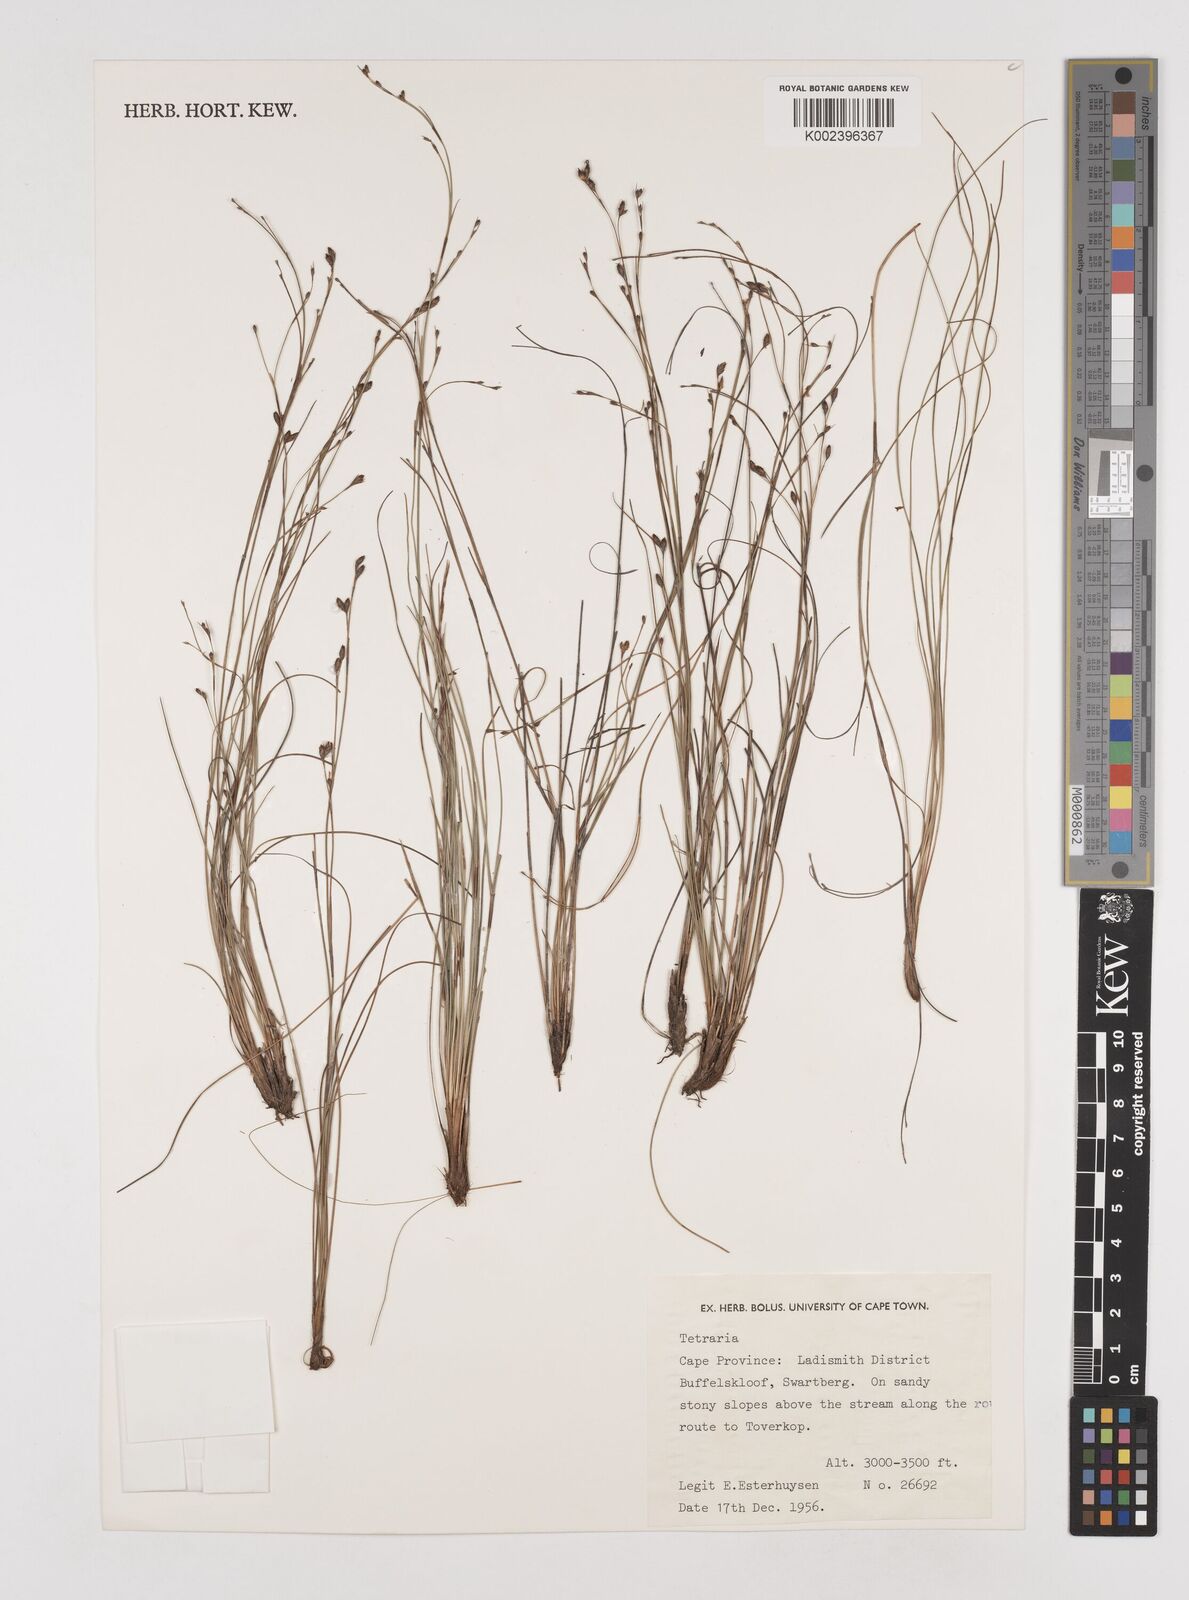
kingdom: Plantae
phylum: Tracheophyta
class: Liliopsida
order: Poales
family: Cyperaceae
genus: Tetraria
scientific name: Tetraria
